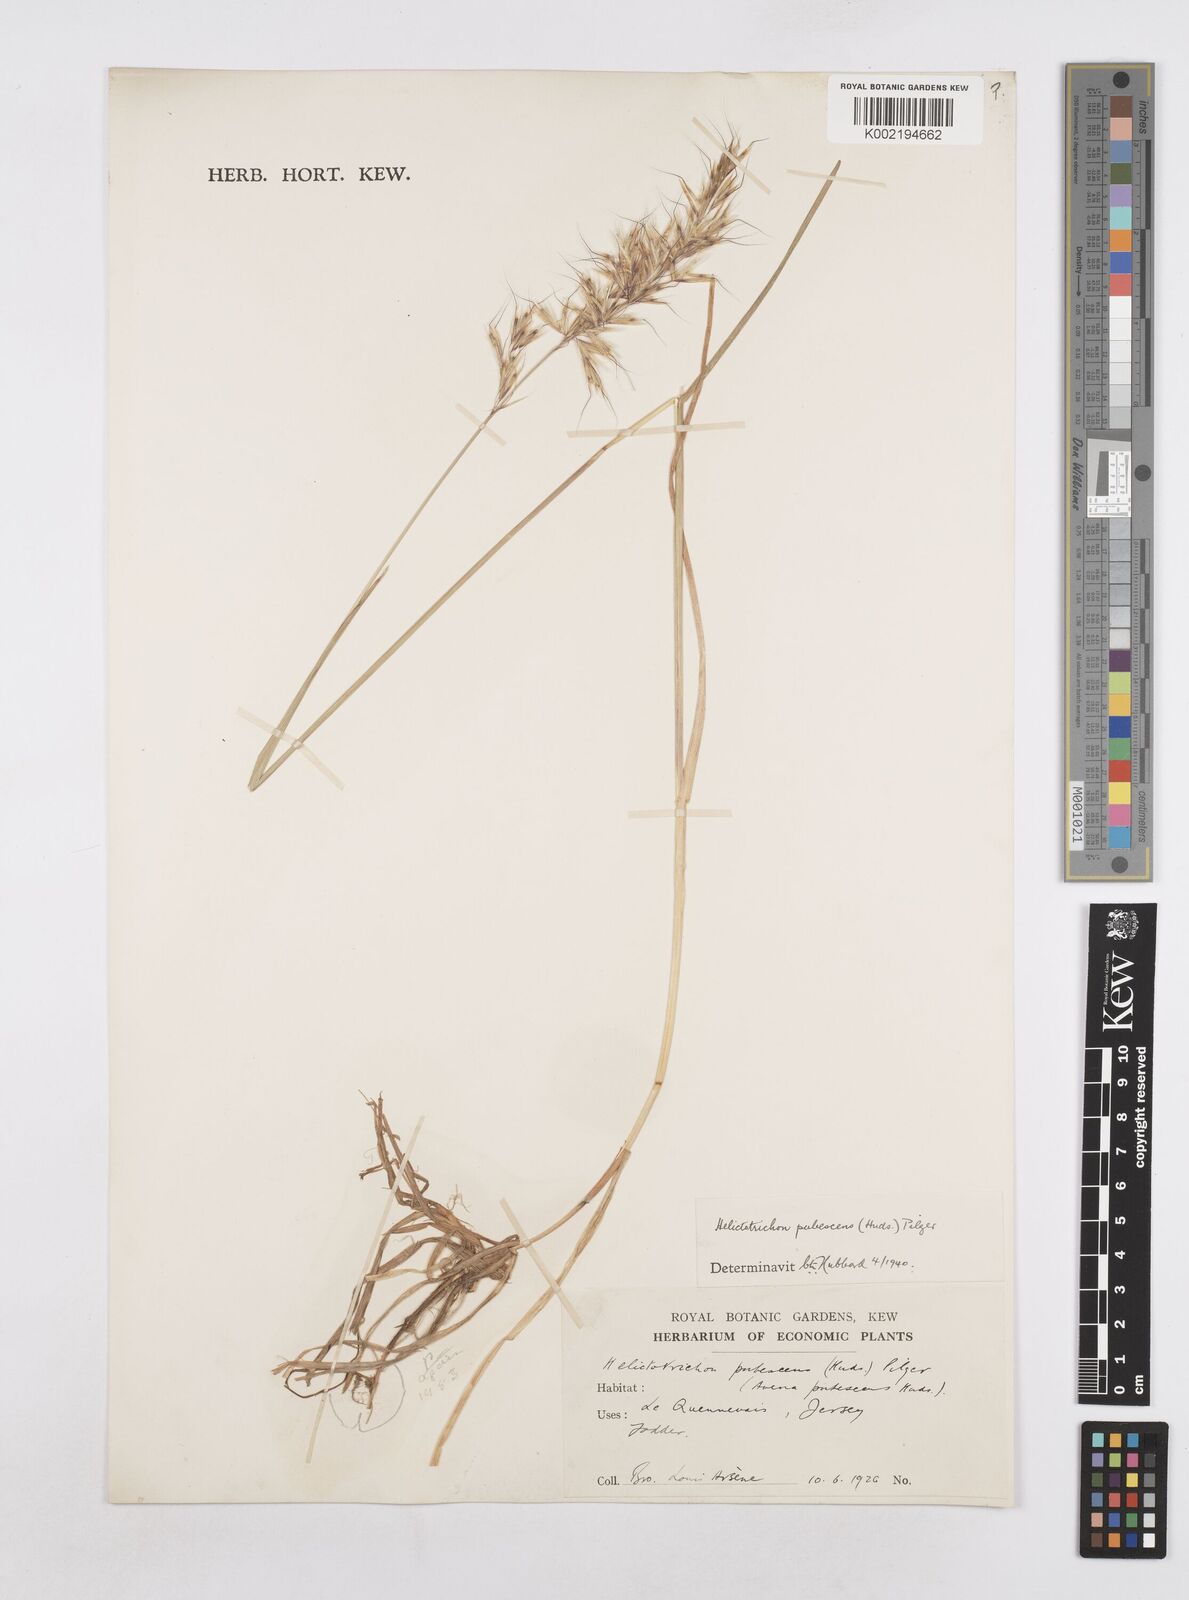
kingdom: Plantae
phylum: Tracheophyta
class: Liliopsida
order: Poales
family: Poaceae
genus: Avenula
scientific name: Avenula pubescens
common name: Downy alpine oatgrass
